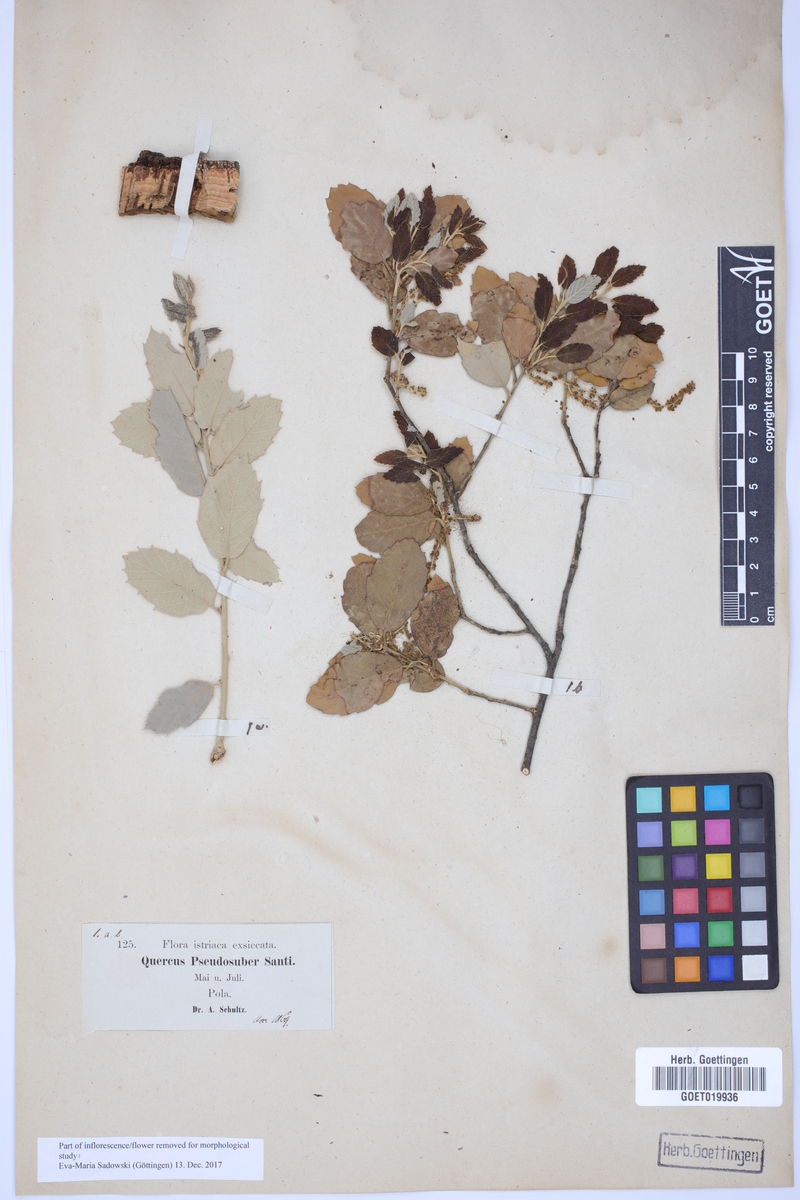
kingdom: Plantae
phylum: Tracheophyta
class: Magnoliopsida
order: Fagales
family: Fagaceae
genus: Quercus
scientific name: Quercus crenata
